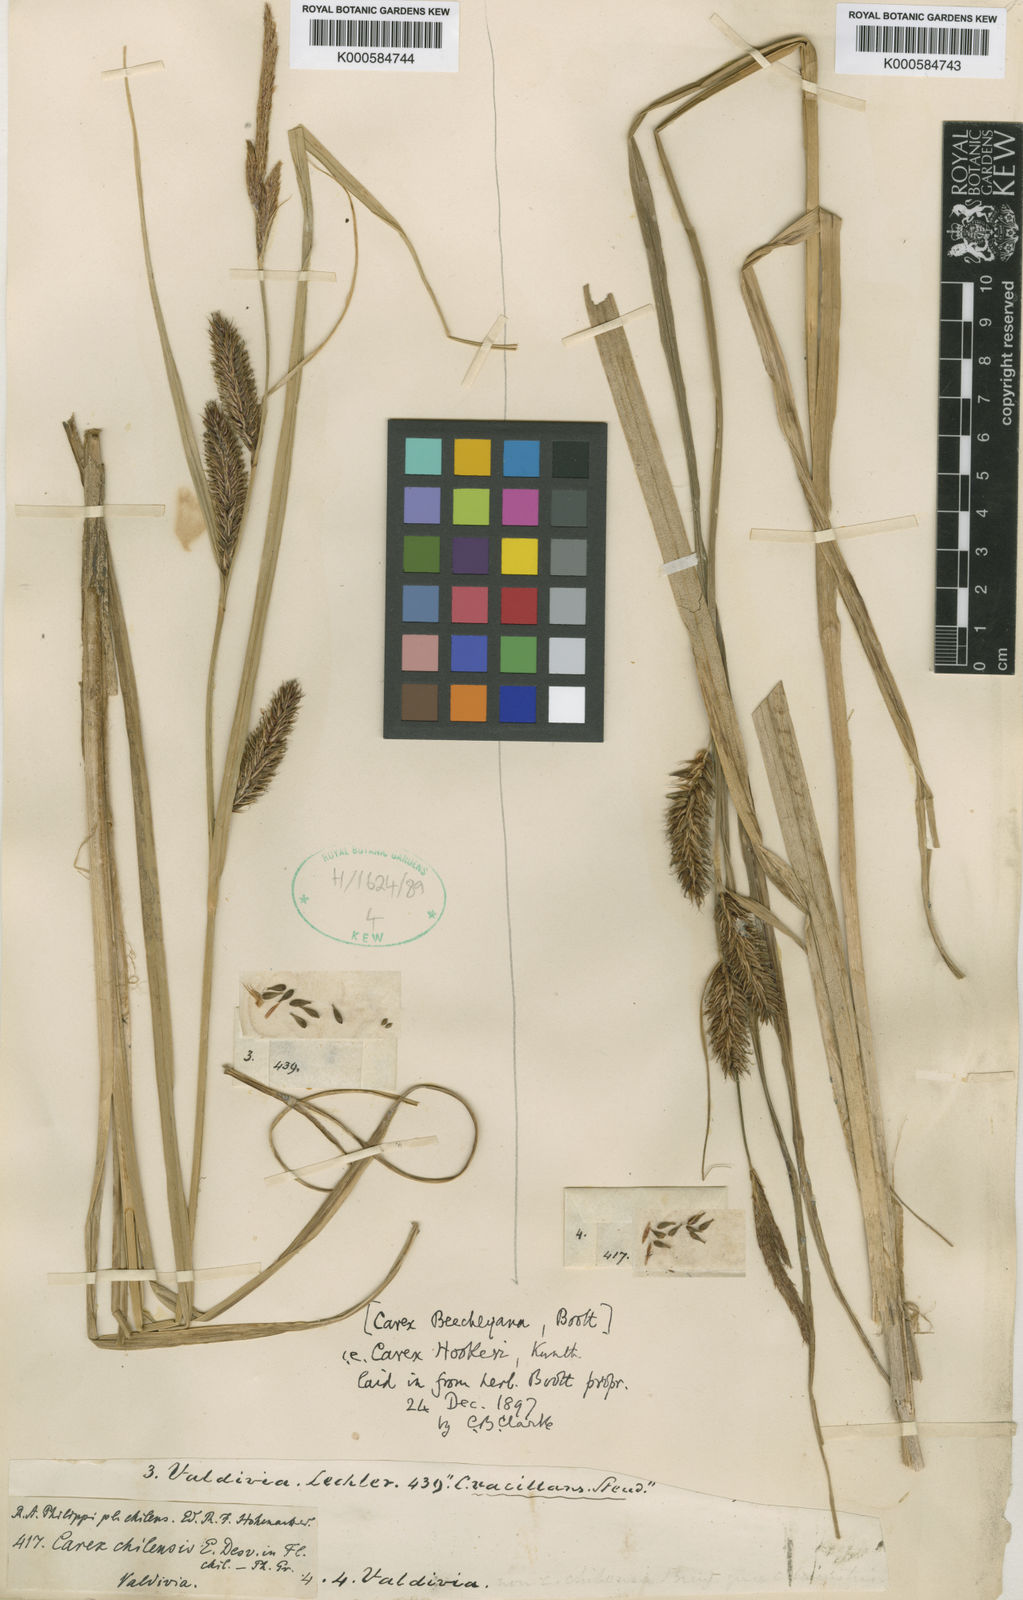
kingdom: Plantae
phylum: Tracheophyta
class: Liliopsida
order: Poales
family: Cyperaceae
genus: Carex
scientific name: Carex hookeri
